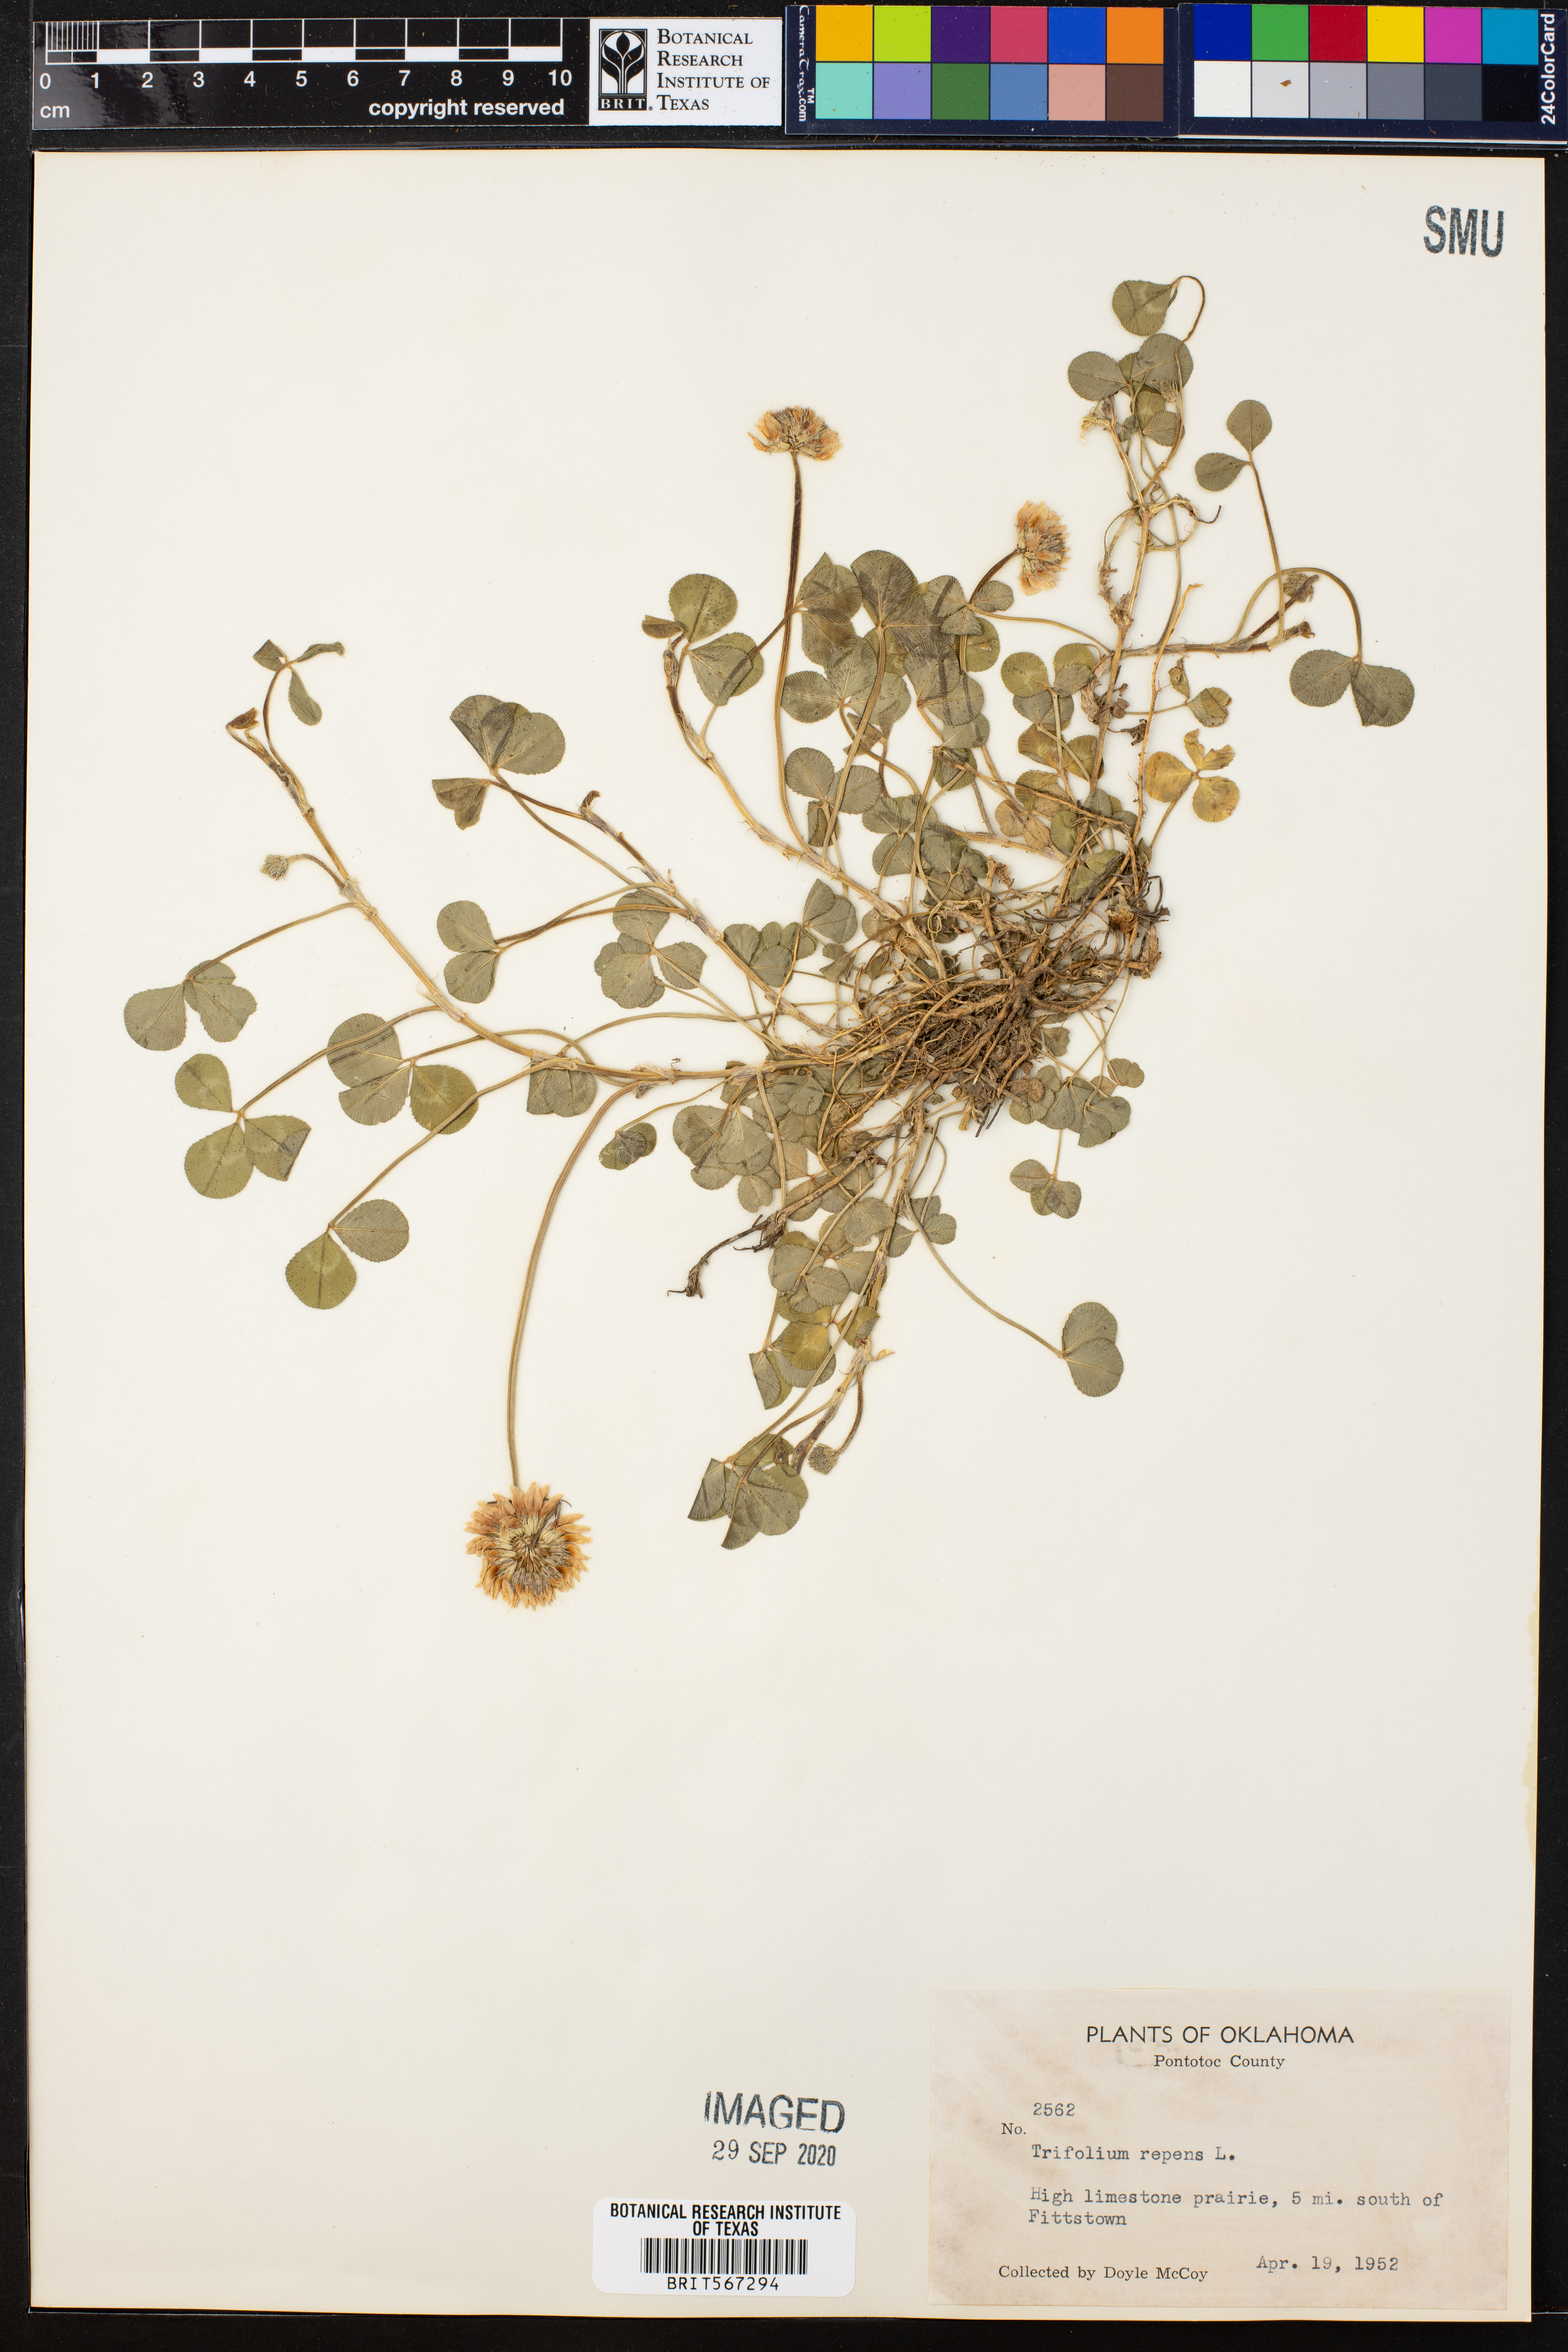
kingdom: Plantae
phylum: Tracheophyta
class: Magnoliopsida
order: Fabales
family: Fabaceae
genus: Trifolium
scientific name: Trifolium repens
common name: White clover
